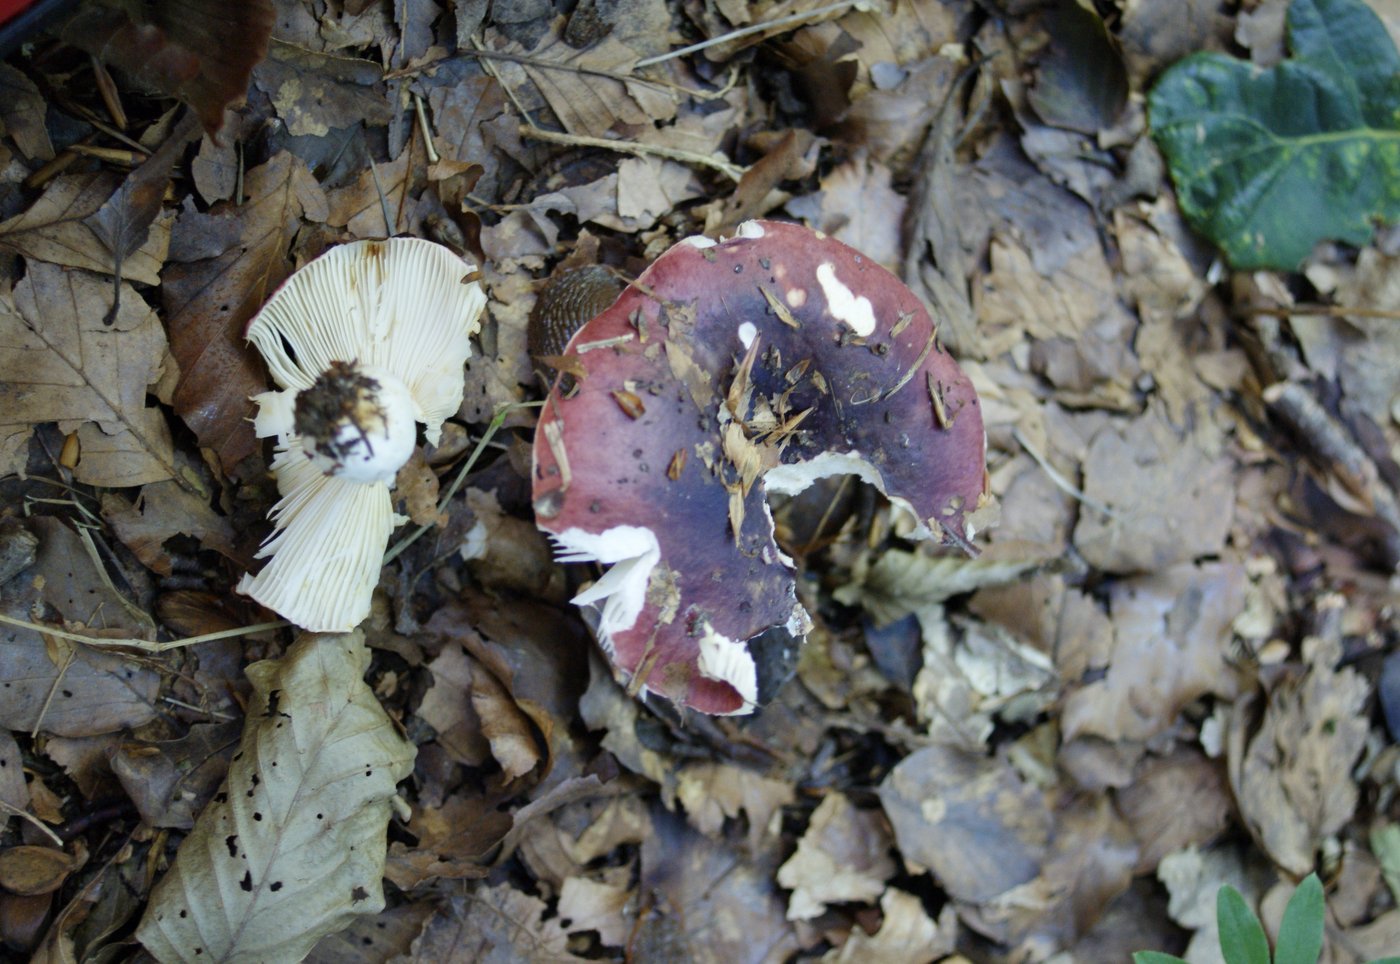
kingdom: Fungi
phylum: Basidiomycota
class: Agaricomycetes
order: Russulales
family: Russulaceae
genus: Russula
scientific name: Russula atropurpurea
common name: purpurbroget skørhat
